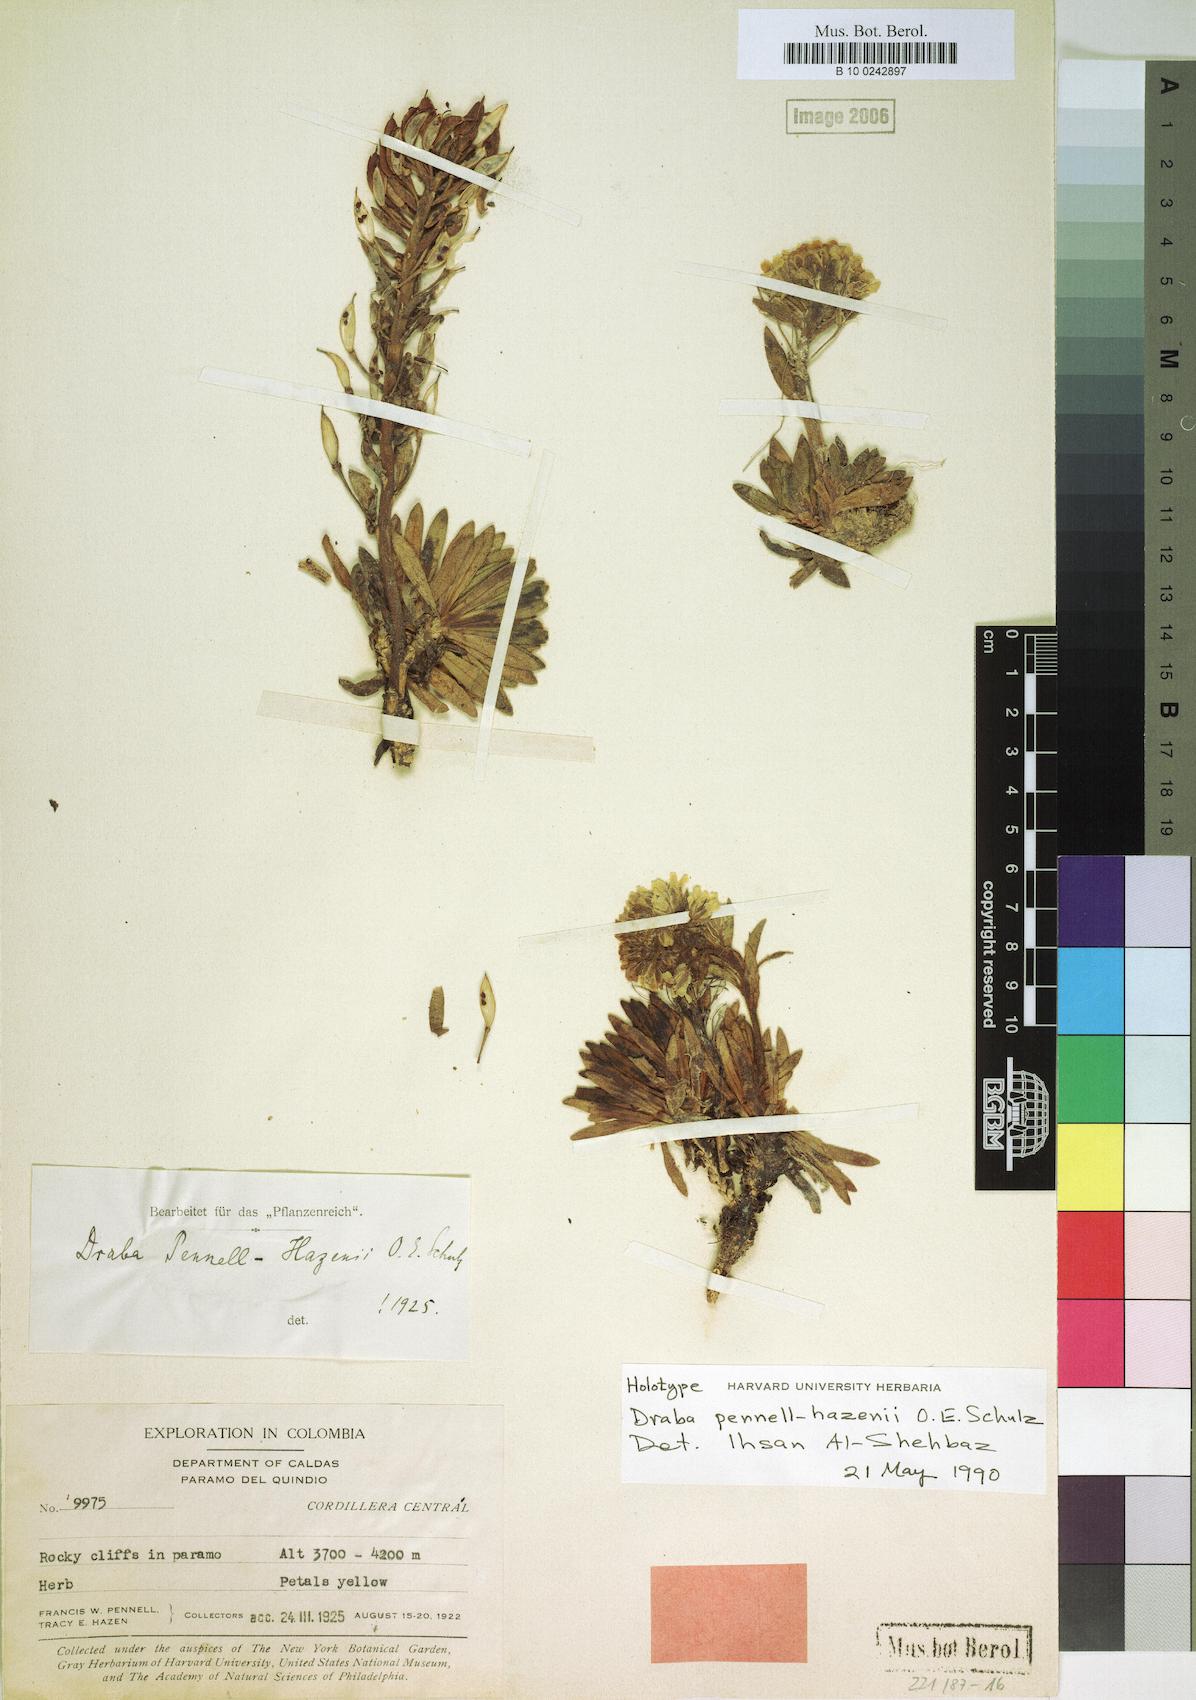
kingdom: Plantae
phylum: Tracheophyta
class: Magnoliopsida
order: Brassicales
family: Brassicaceae
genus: Draba
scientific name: Draba pennell-hazenii
